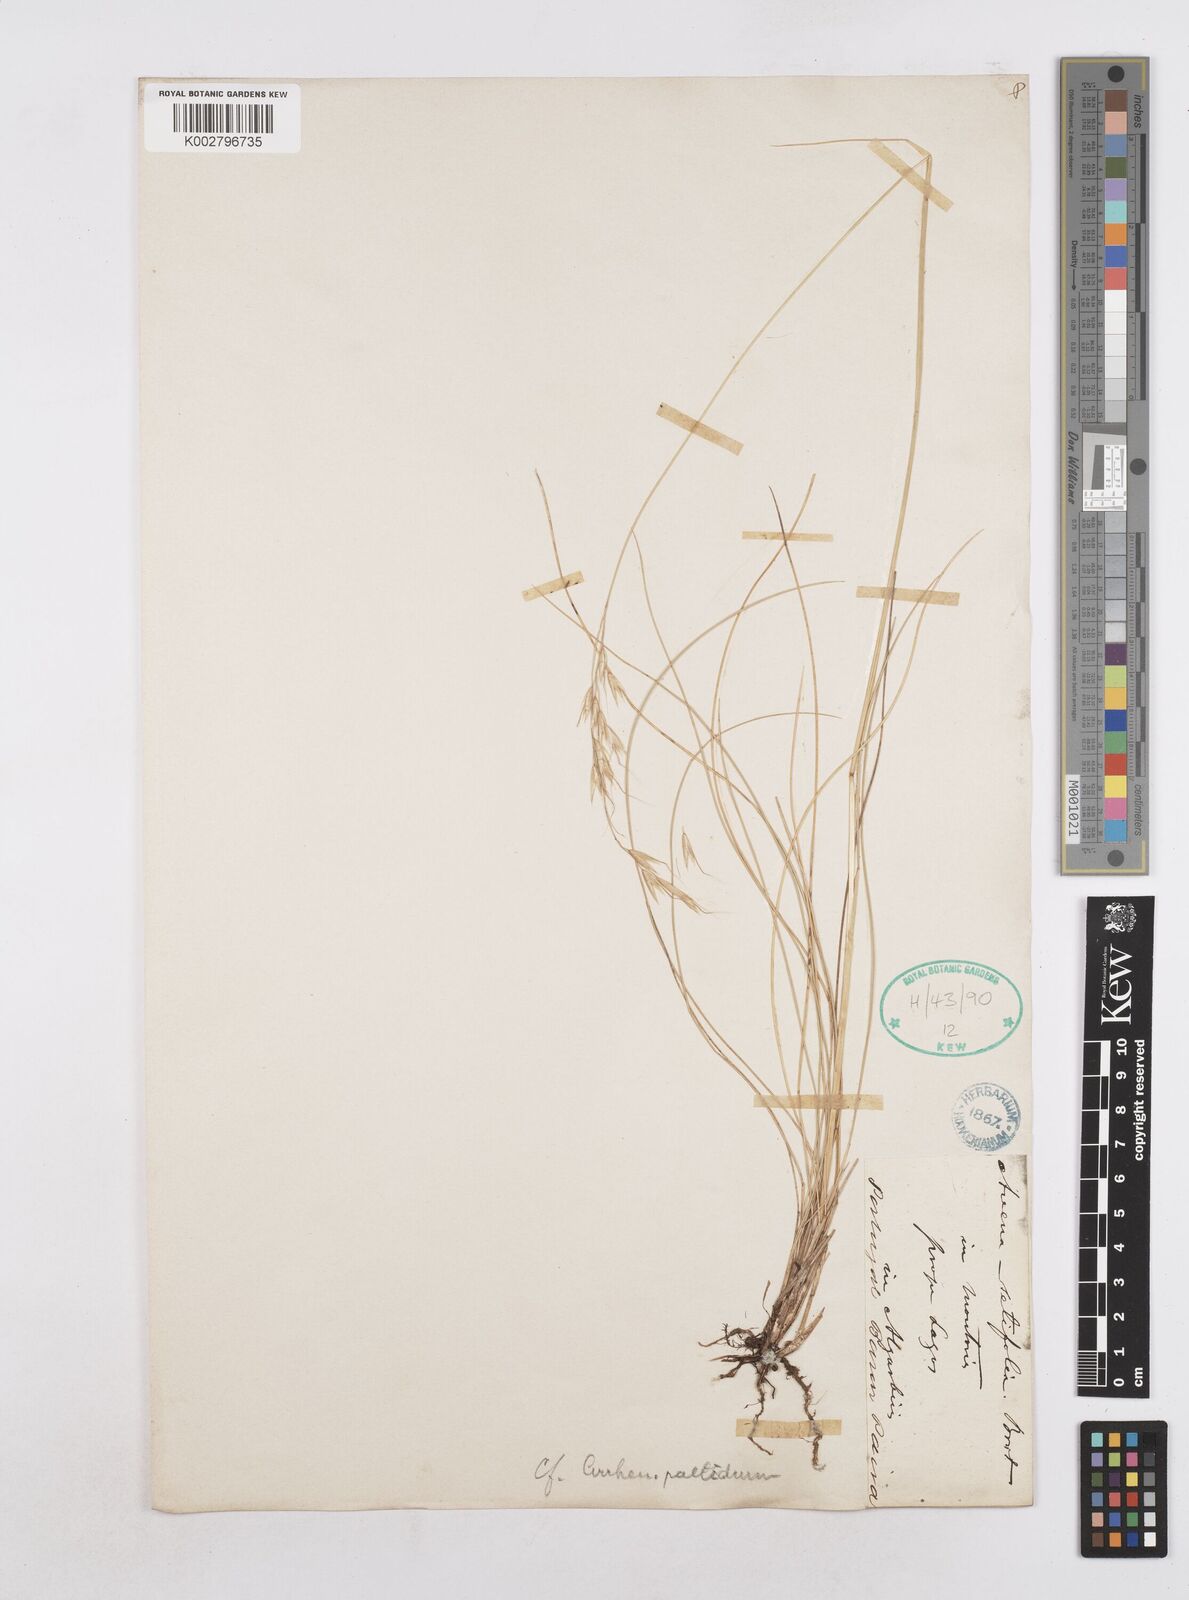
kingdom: Plantae
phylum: Tracheophyta
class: Liliopsida
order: Poales
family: Poaceae
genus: Arrhenatherum
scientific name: Arrhenatherum pallens
